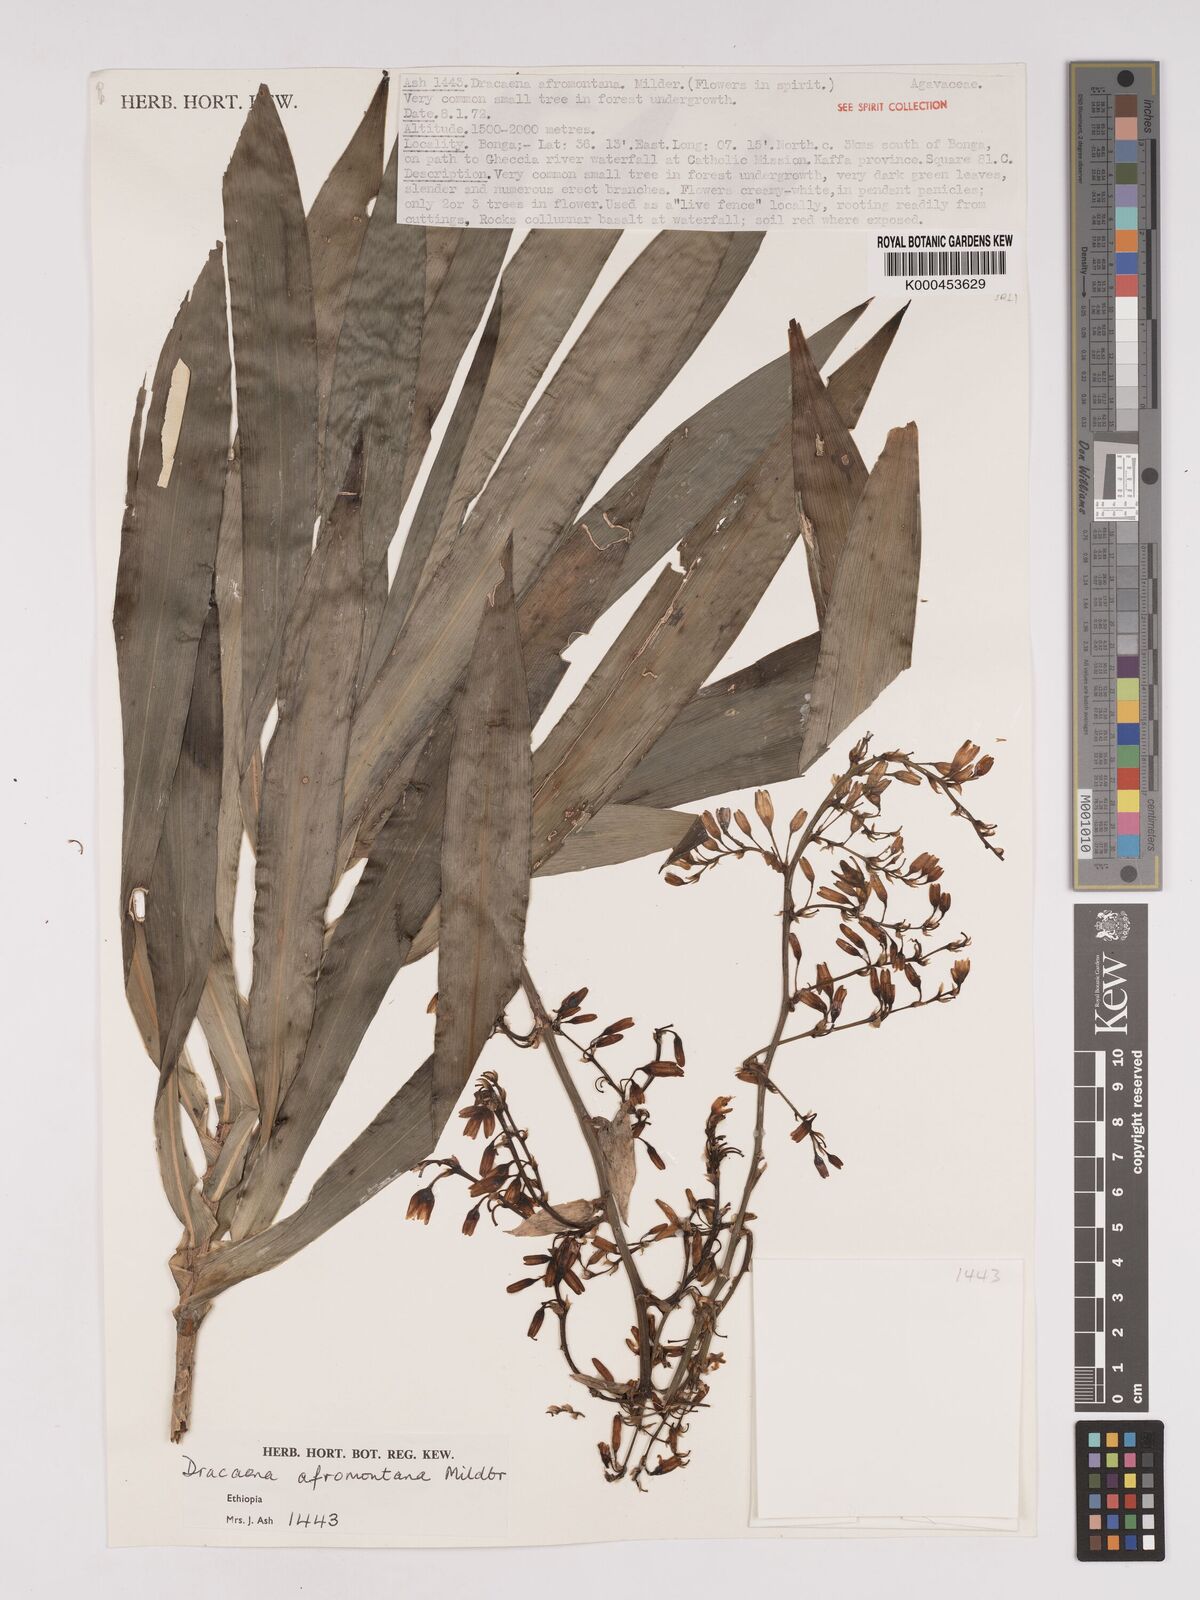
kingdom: Plantae
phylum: Tracheophyta
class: Liliopsida
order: Asparagales
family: Asparagaceae
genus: Dracaena
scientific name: Dracaena afromontana
